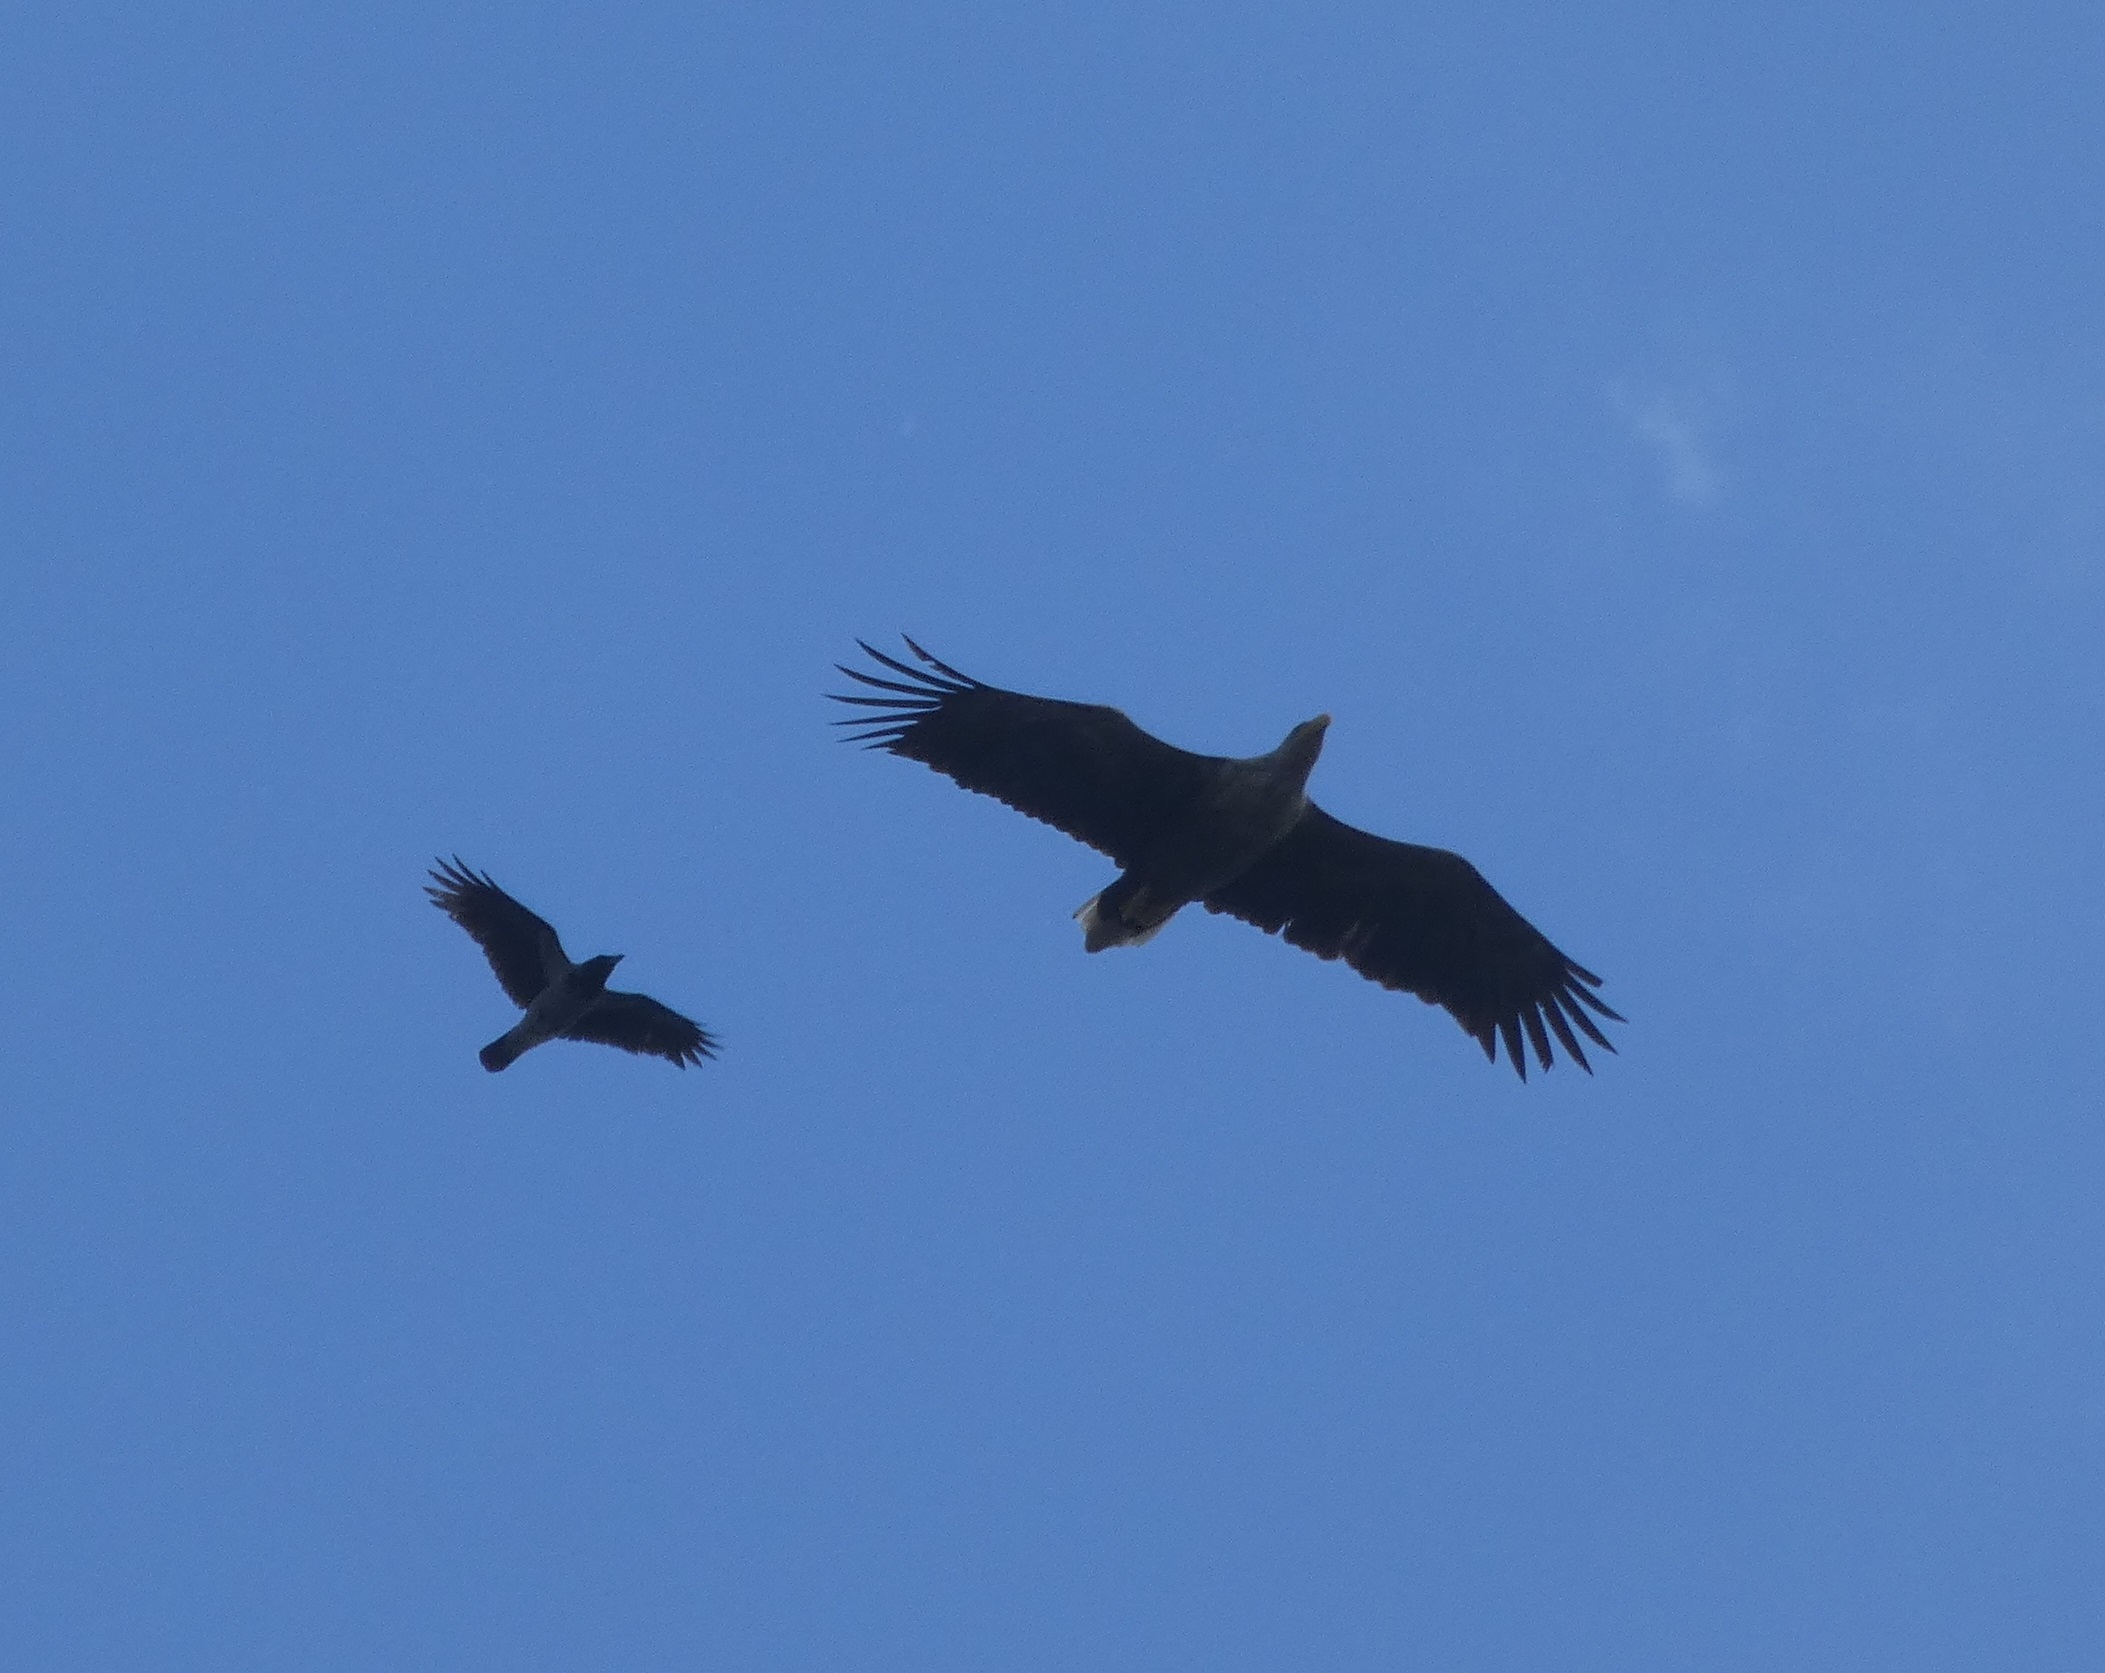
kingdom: Animalia
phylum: Chordata
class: Aves
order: Accipitriformes
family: Accipitridae
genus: Haliaeetus
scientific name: Haliaeetus albicilla
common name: Havørn
